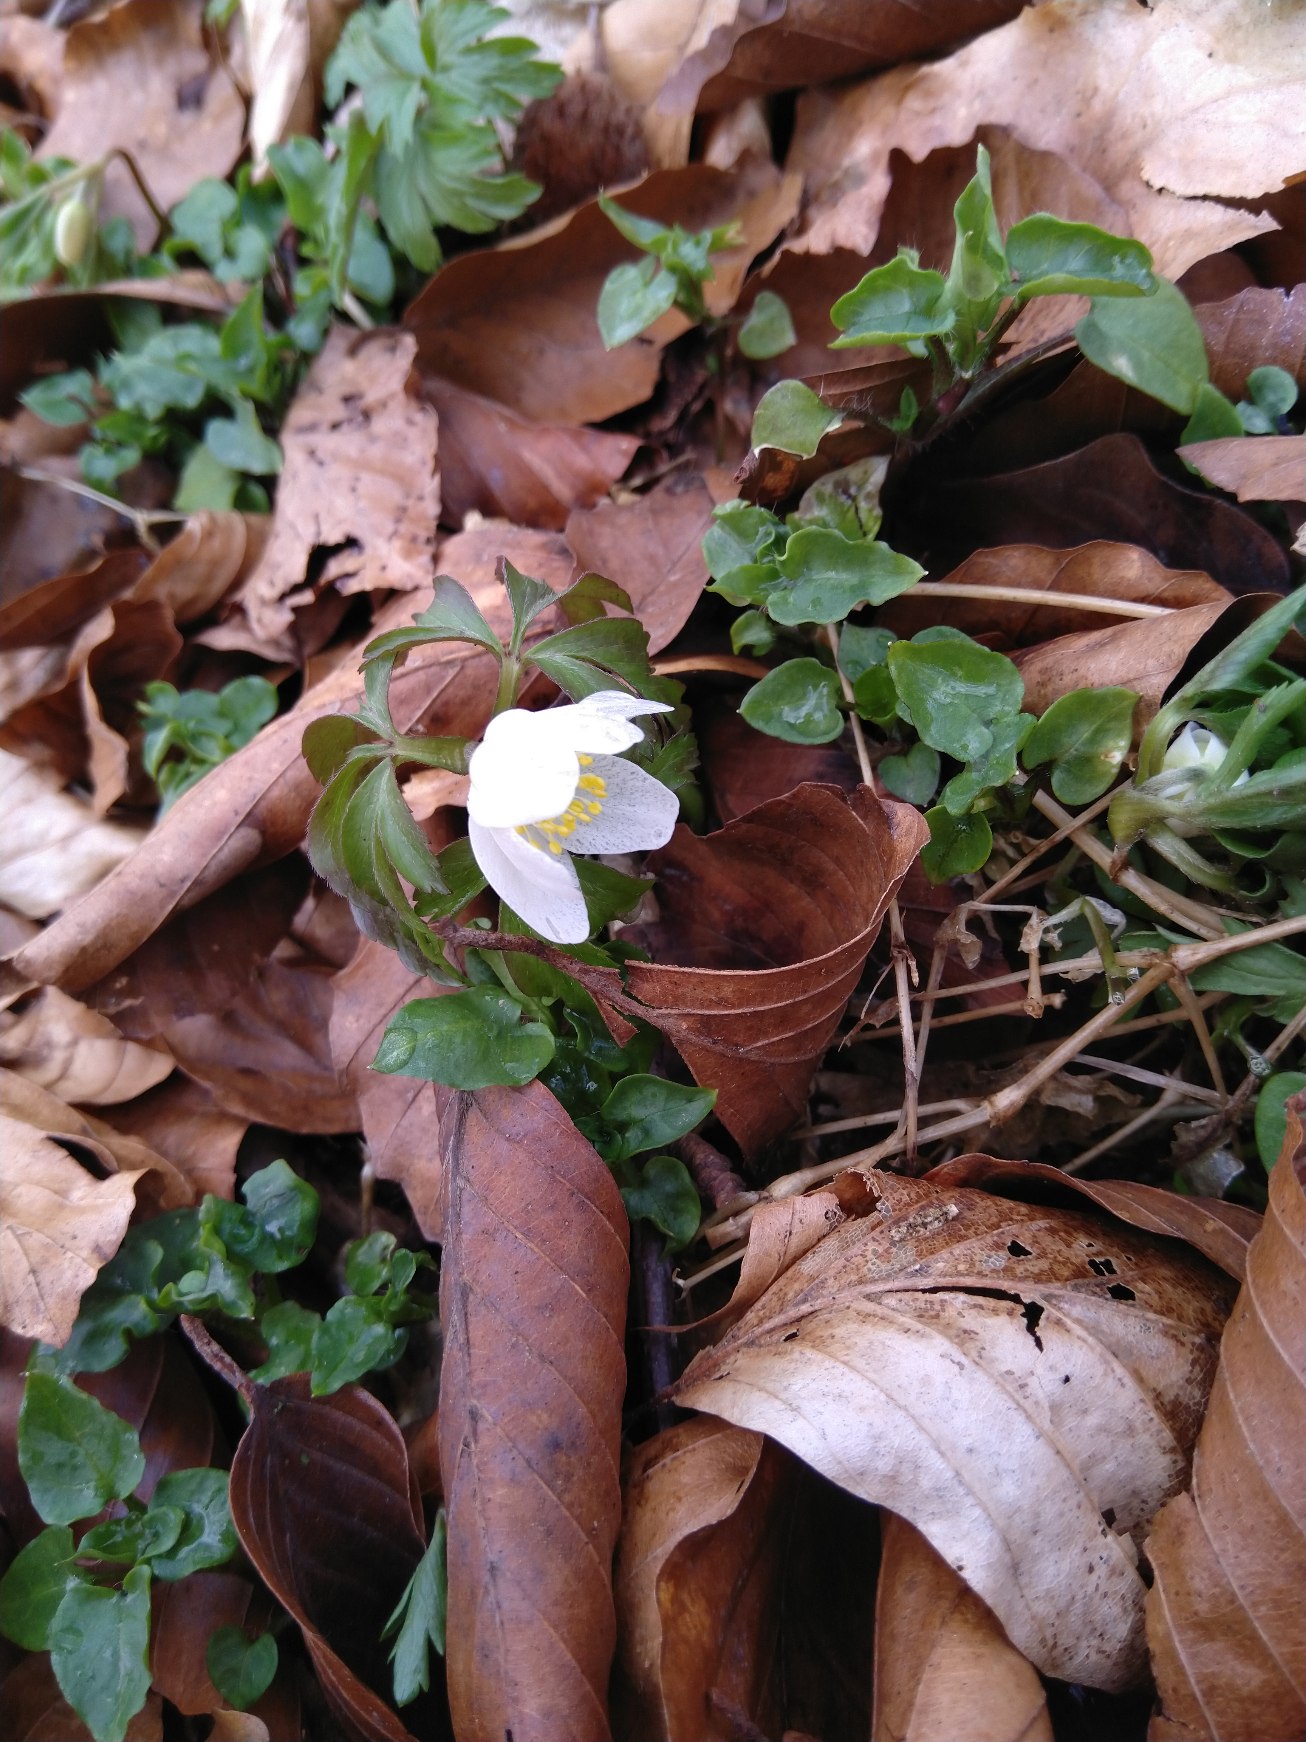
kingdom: Plantae
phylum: Tracheophyta
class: Magnoliopsida
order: Ranunculales
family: Ranunculaceae
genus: Anemone
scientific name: Anemone nemorosa
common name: Hvid anemone
